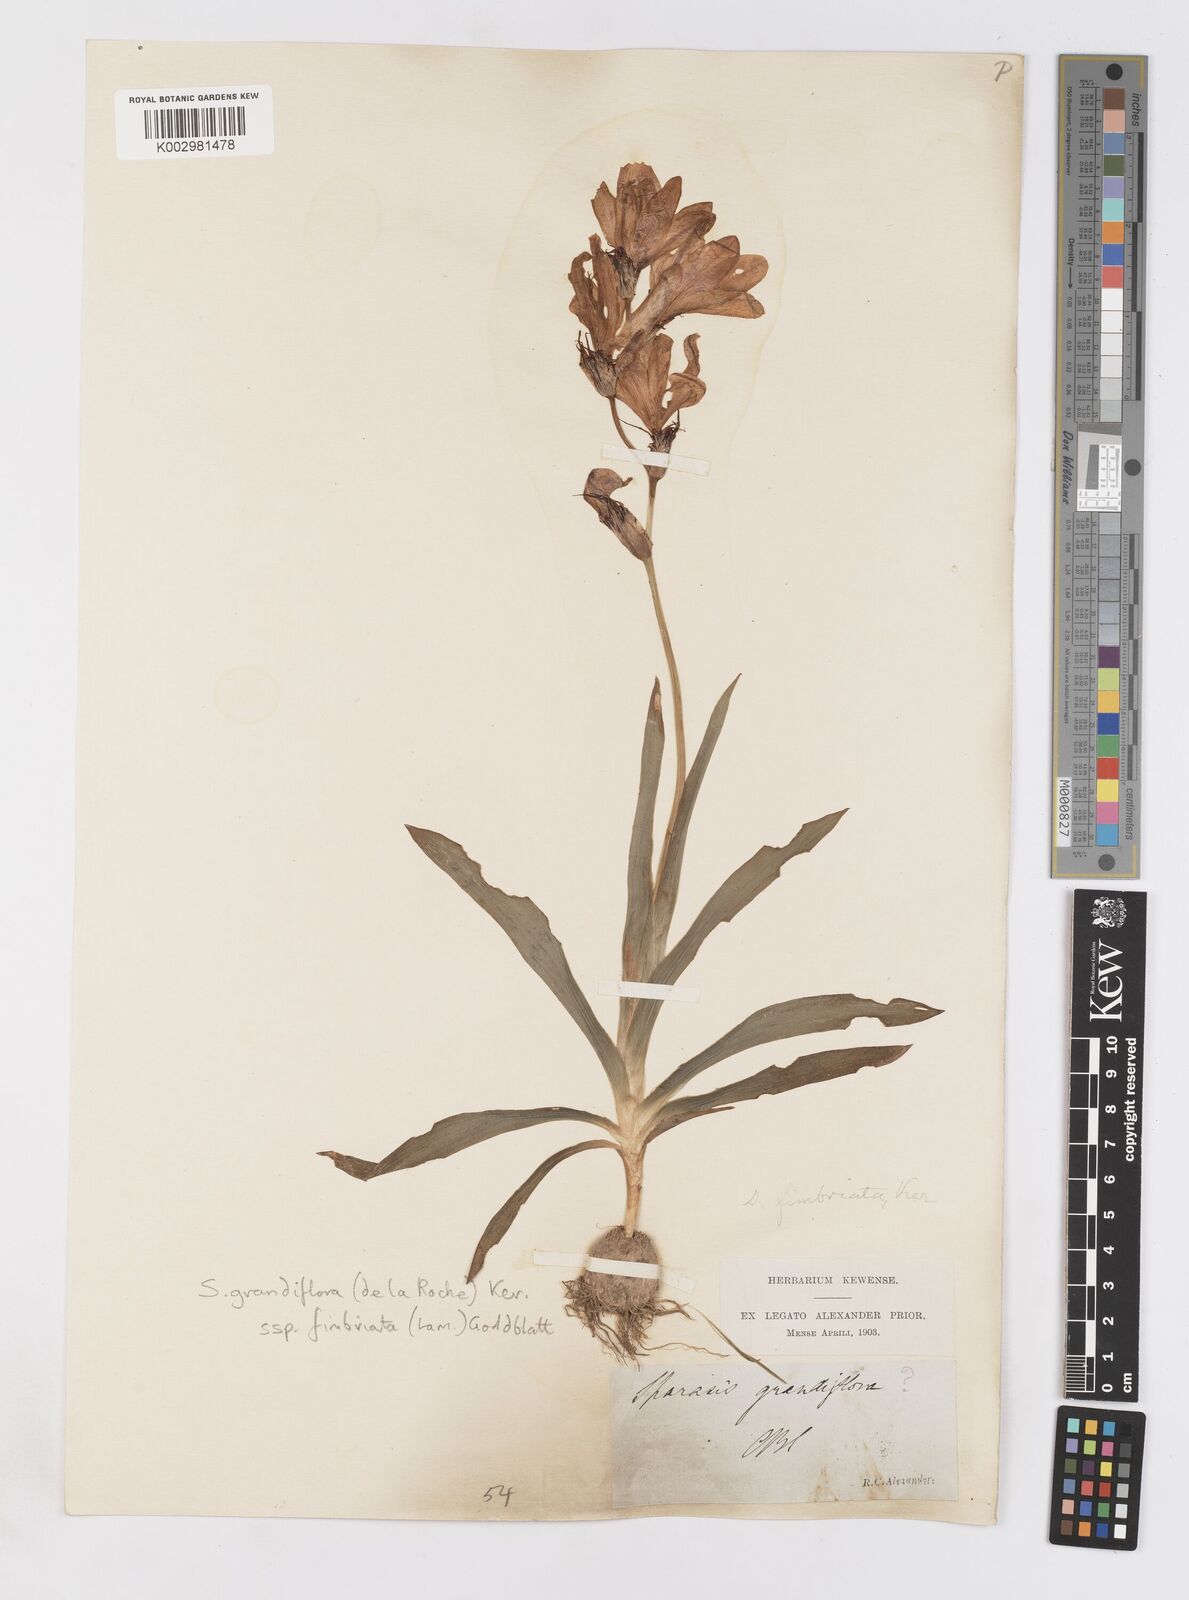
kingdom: Plantae
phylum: Tracheophyta
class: Liliopsida
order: Asparagales
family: Iridaceae
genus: Sparaxis
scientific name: Sparaxis grandiflora
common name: Plain harlequin-flower
